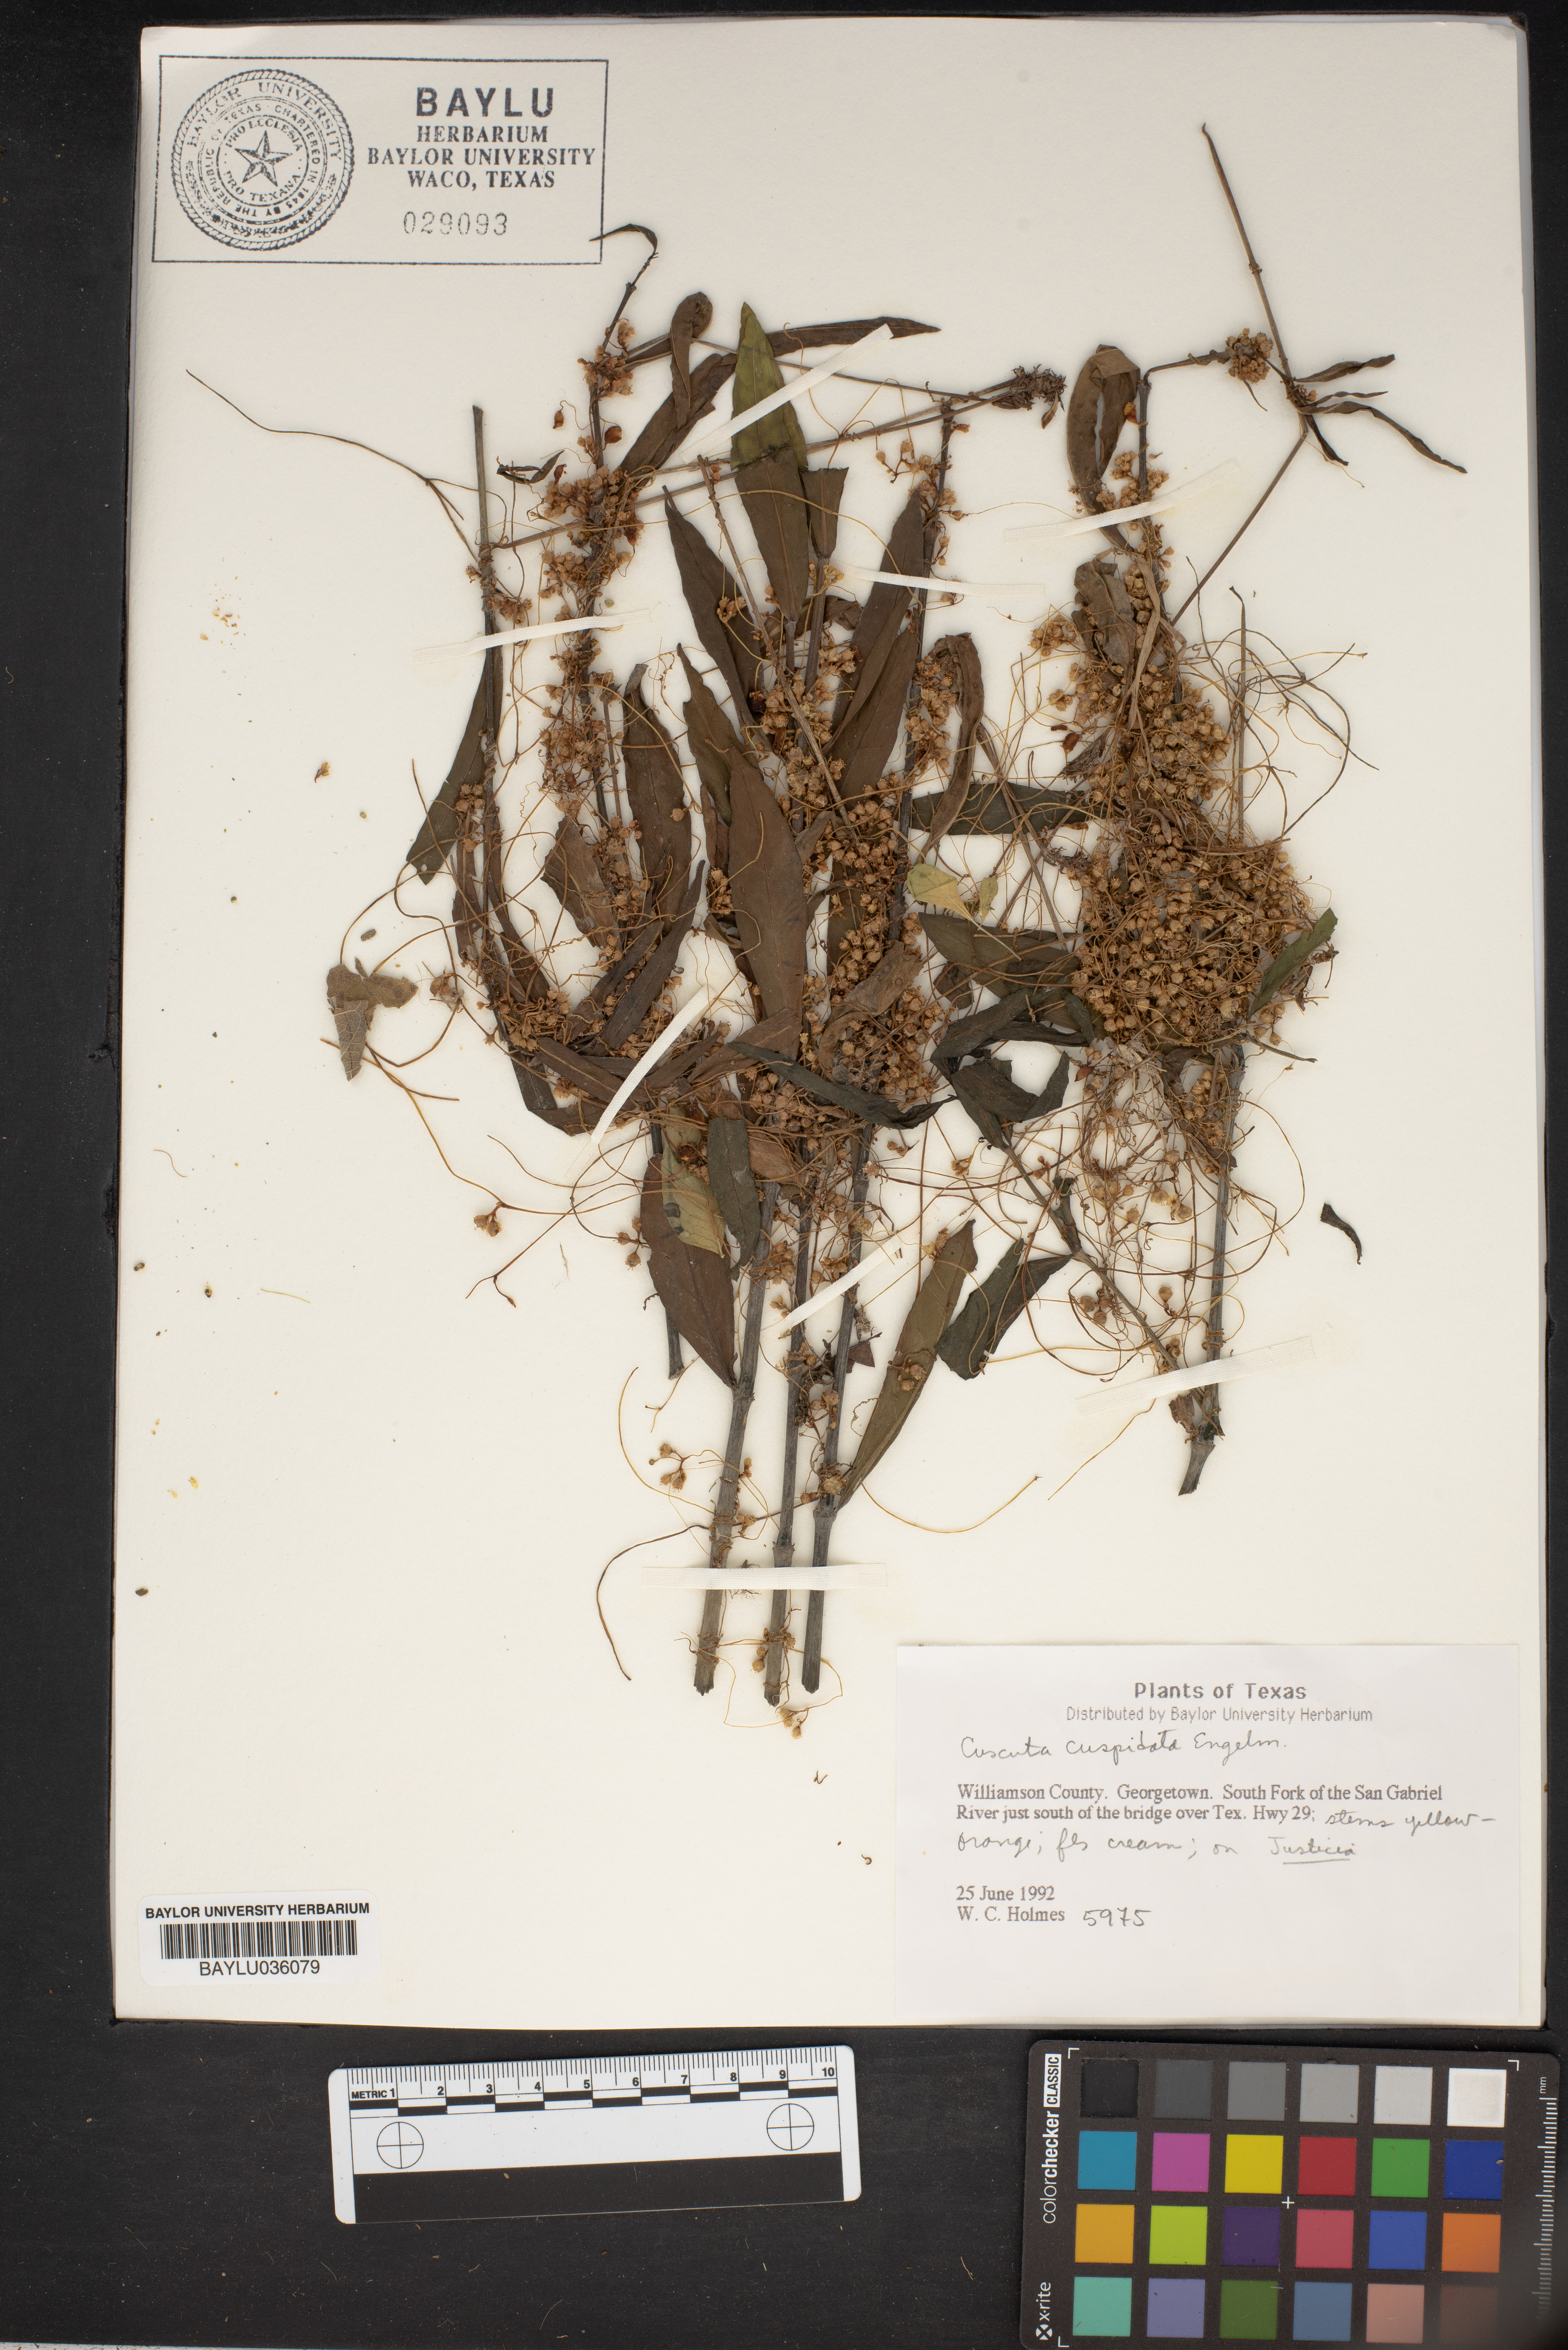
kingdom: Plantae
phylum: Tracheophyta
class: Magnoliopsida
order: Solanales
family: Convolvulaceae
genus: Cuscuta
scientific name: Cuscuta cuspidata
